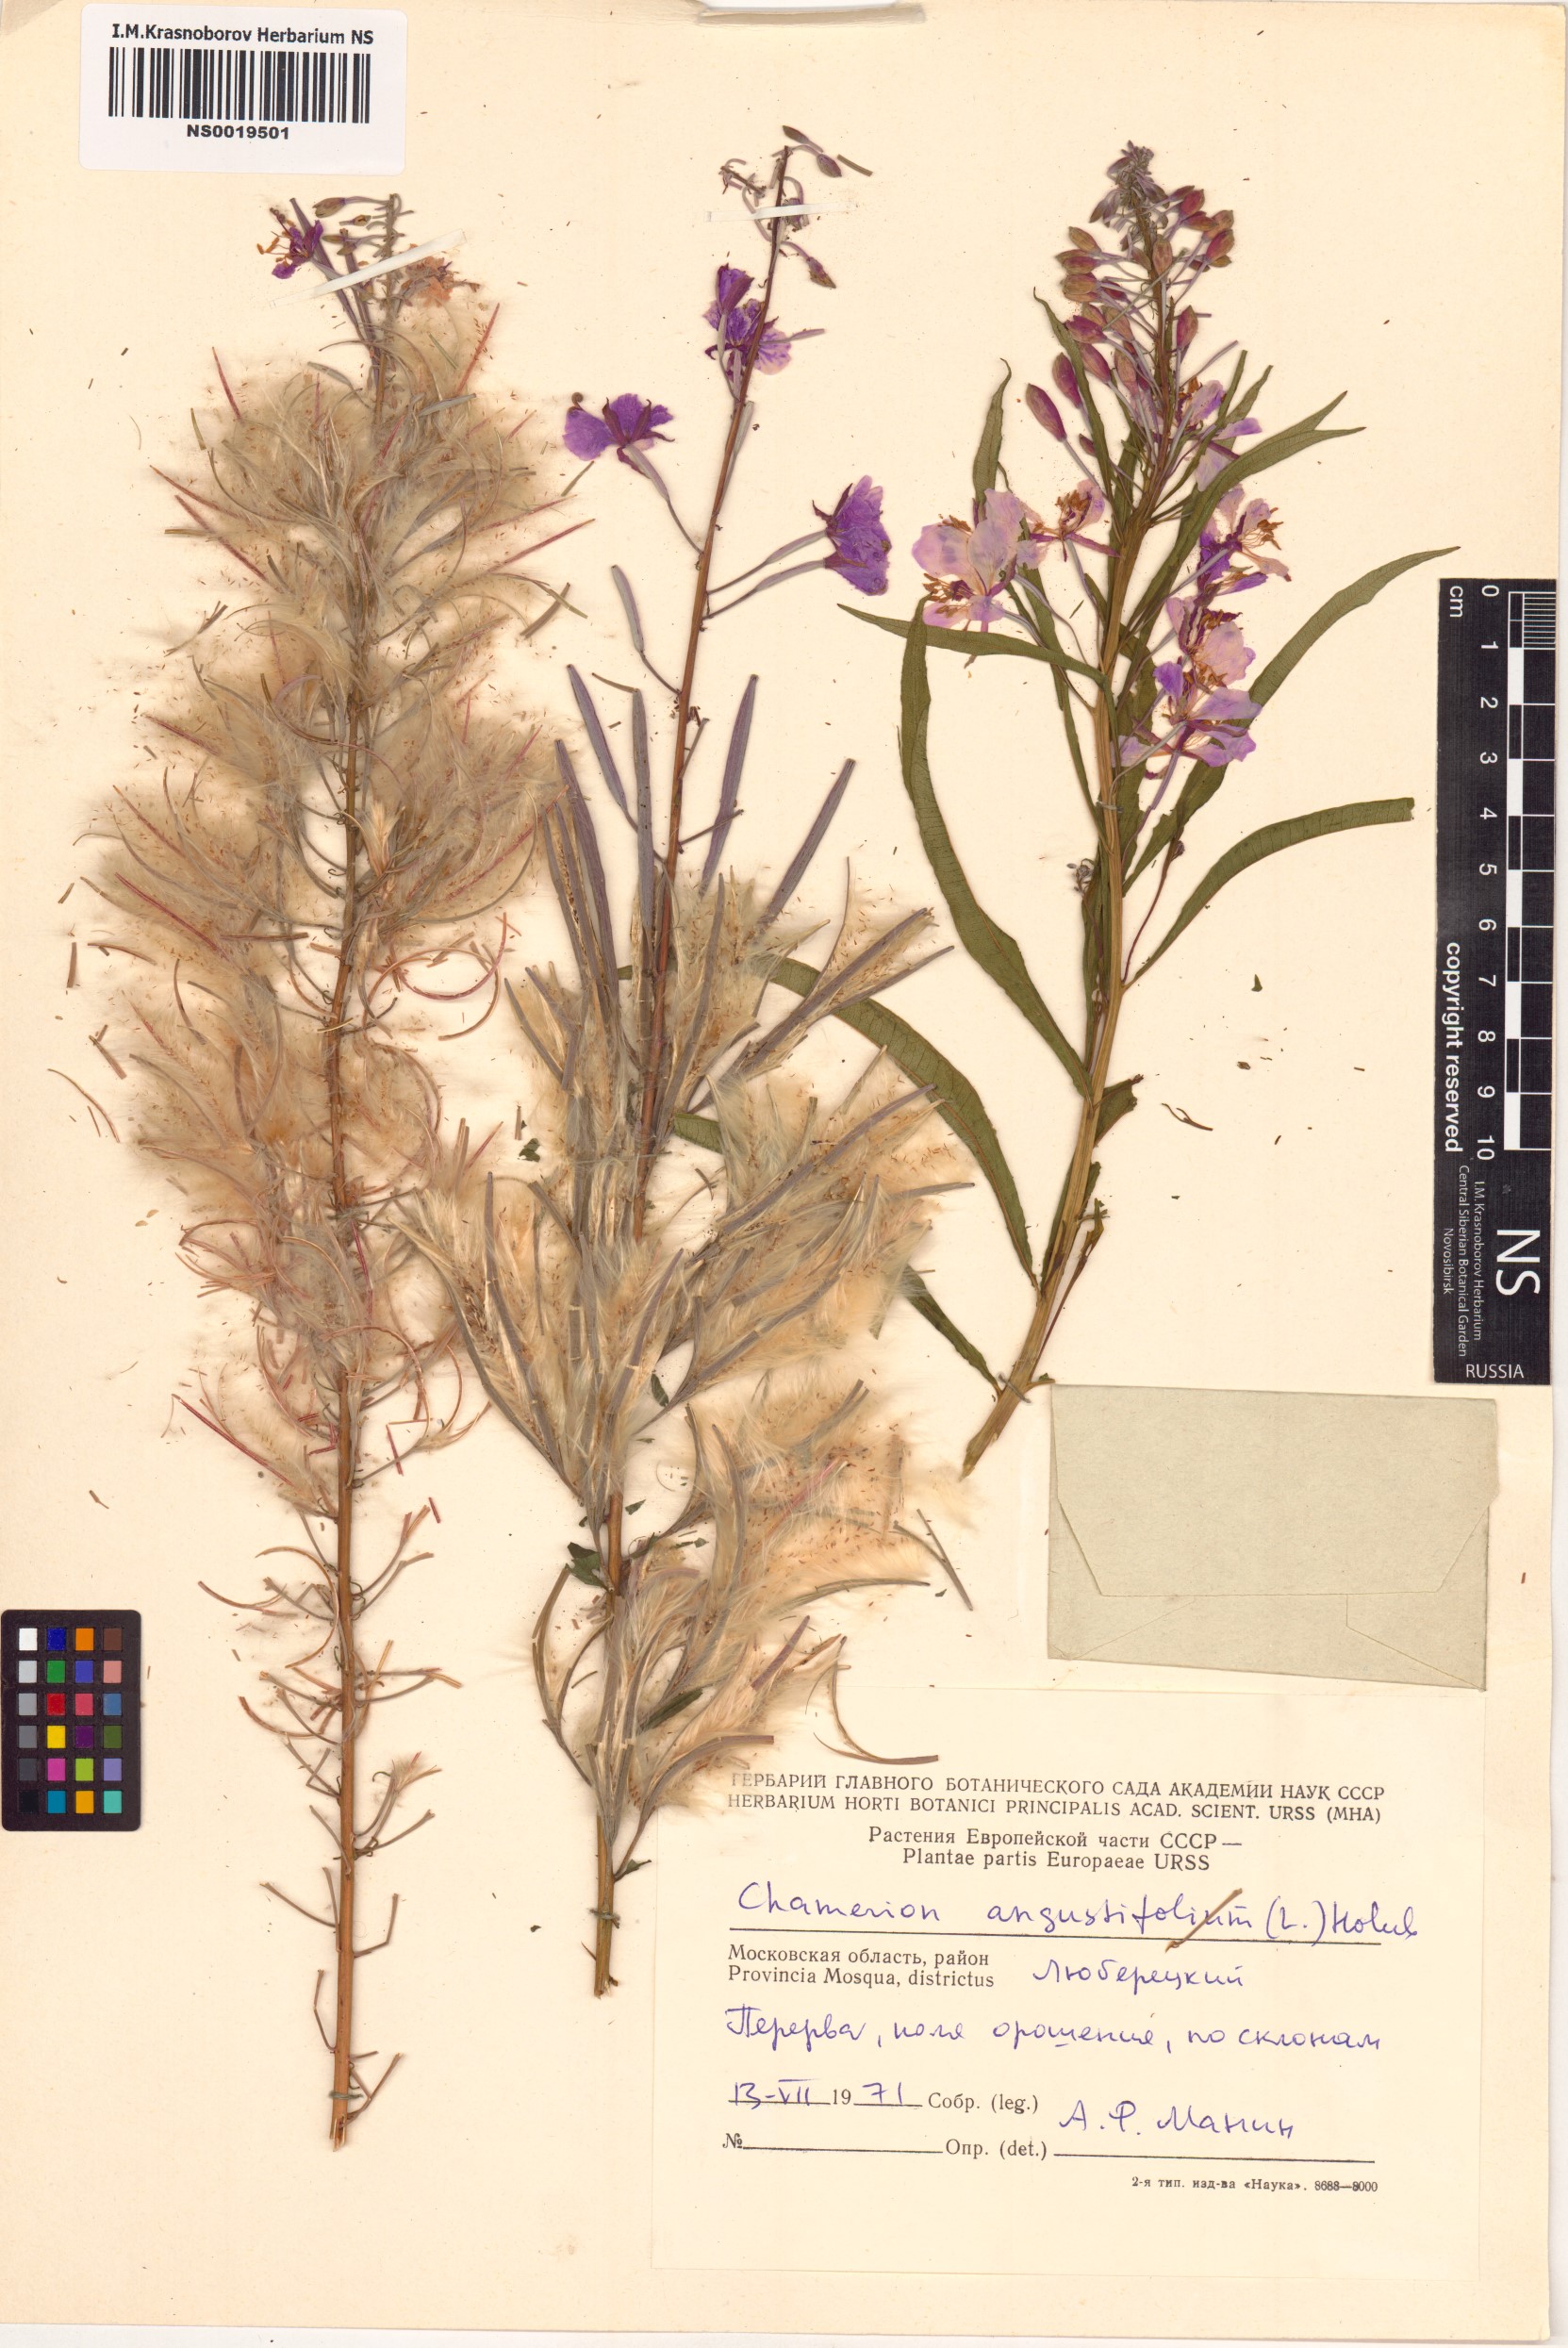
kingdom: Plantae
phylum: Tracheophyta
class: Magnoliopsida
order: Myrtales
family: Onagraceae
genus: Chamaenerion
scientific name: Chamaenerion angustifolium
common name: Fireweed
